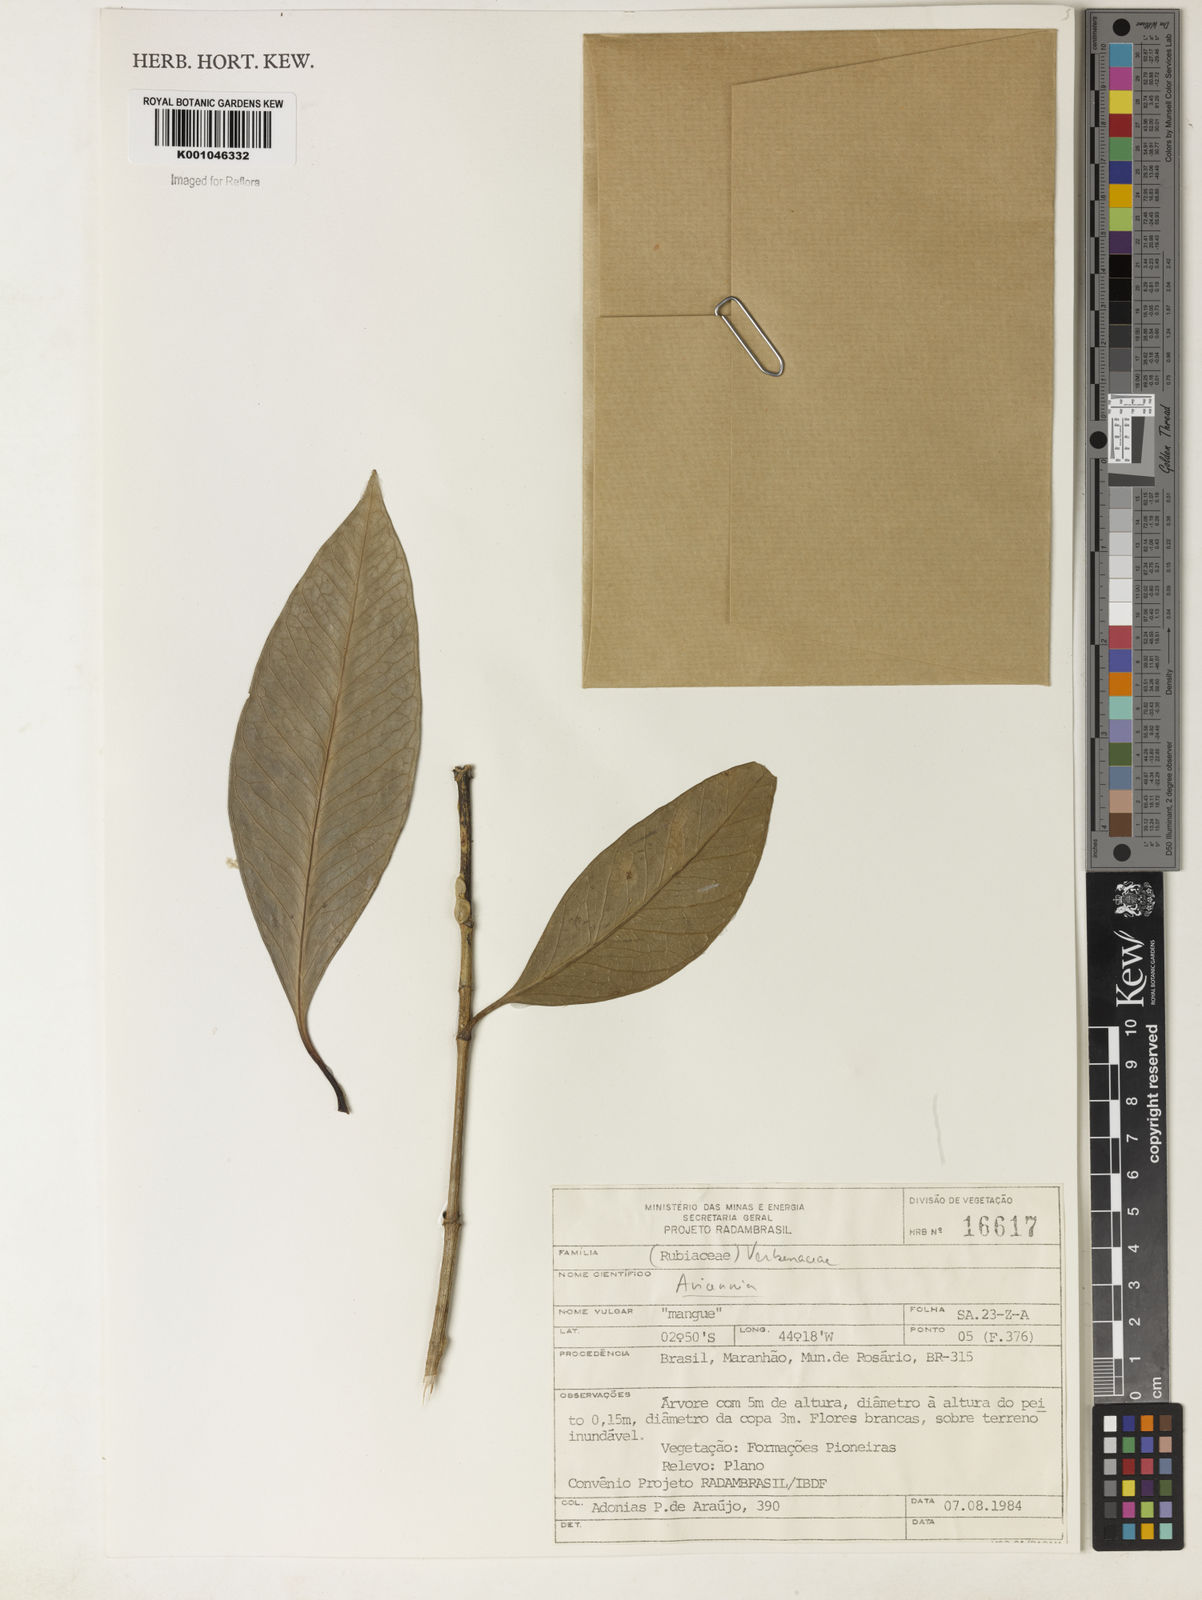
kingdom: Plantae
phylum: Tracheophyta
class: Magnoliopsida
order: Lamiales
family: Acanthaceae
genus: Avicennia
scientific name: Avicennia
